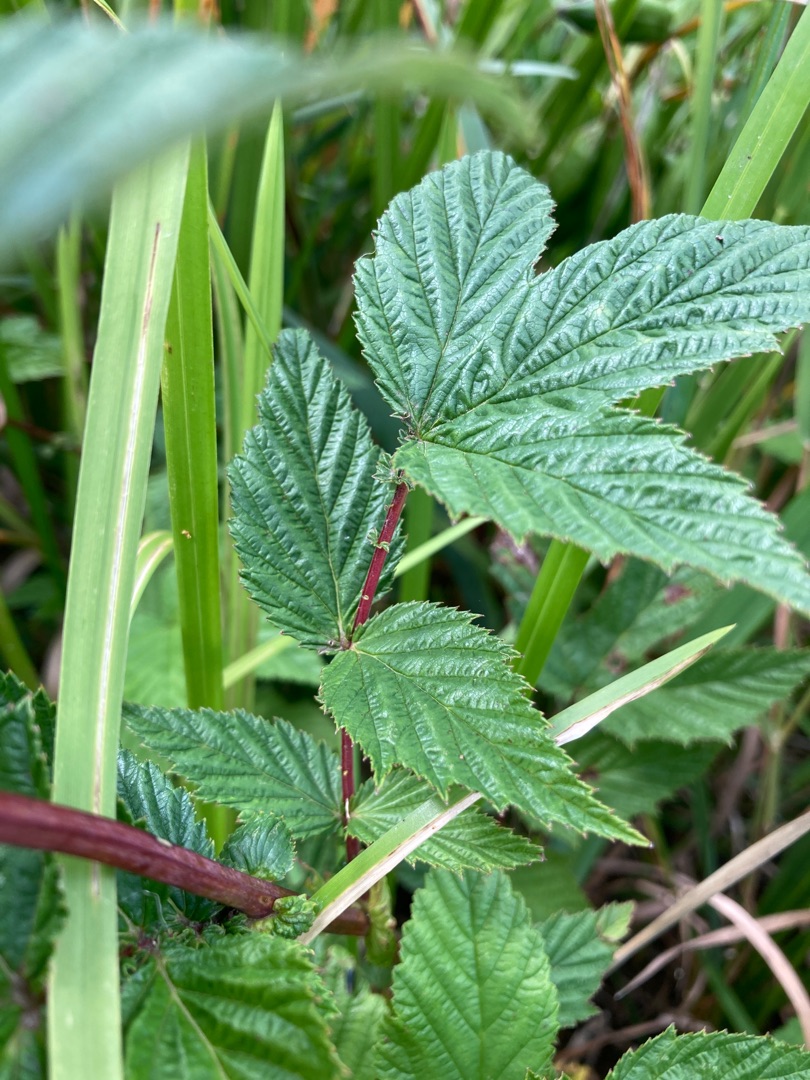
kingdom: Plantae
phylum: Tracheophyta
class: Magnoliopsida
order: Rosales
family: Rosaceae
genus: Filipendula
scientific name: Filipendula ulmaria
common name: Almindelig mjødurt
